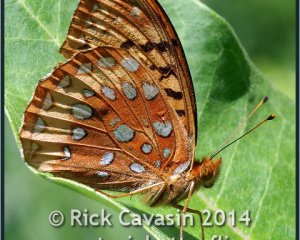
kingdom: Animalia
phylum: Arthropoda
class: Insecta
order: Lepidoptera
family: Nymphalidae
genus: Speyeria
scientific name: Speyeria cybele
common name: Great Spangled Fritillary
